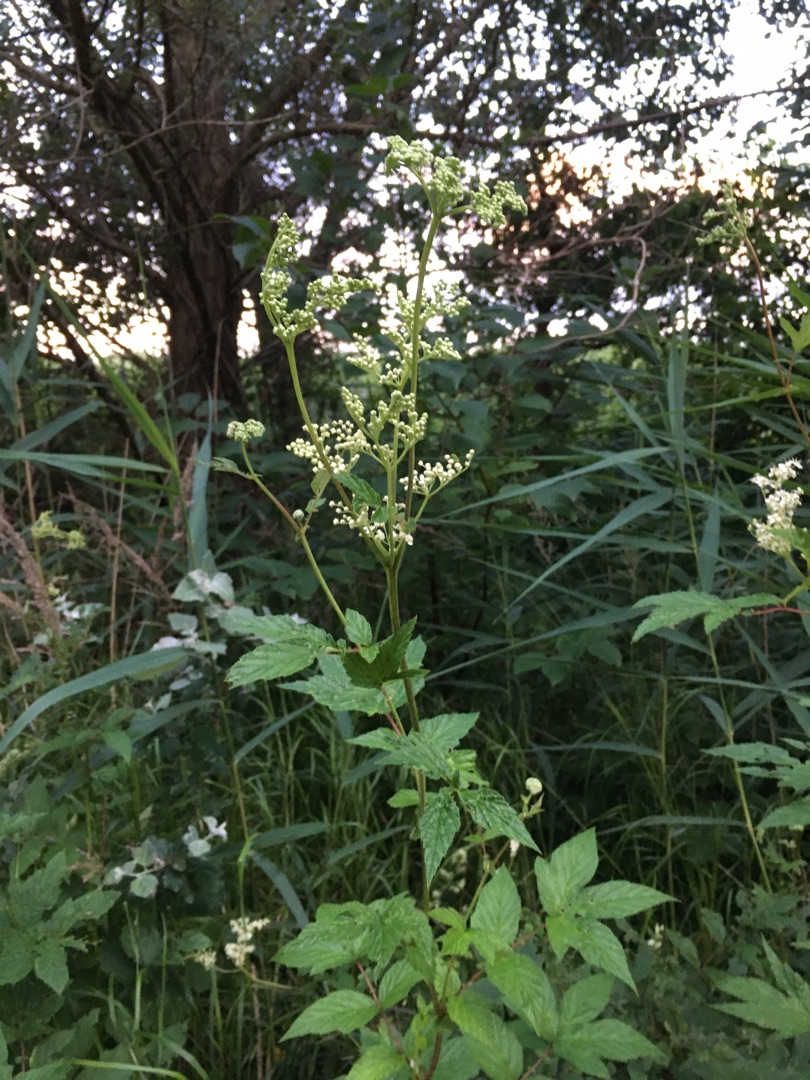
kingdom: Plantae
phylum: Tracheophyta
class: Magnoliopsida
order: Rosales
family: Rosaceae
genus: Filipendula
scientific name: Filipendula ulmaria
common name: Almindelig mjødurt
